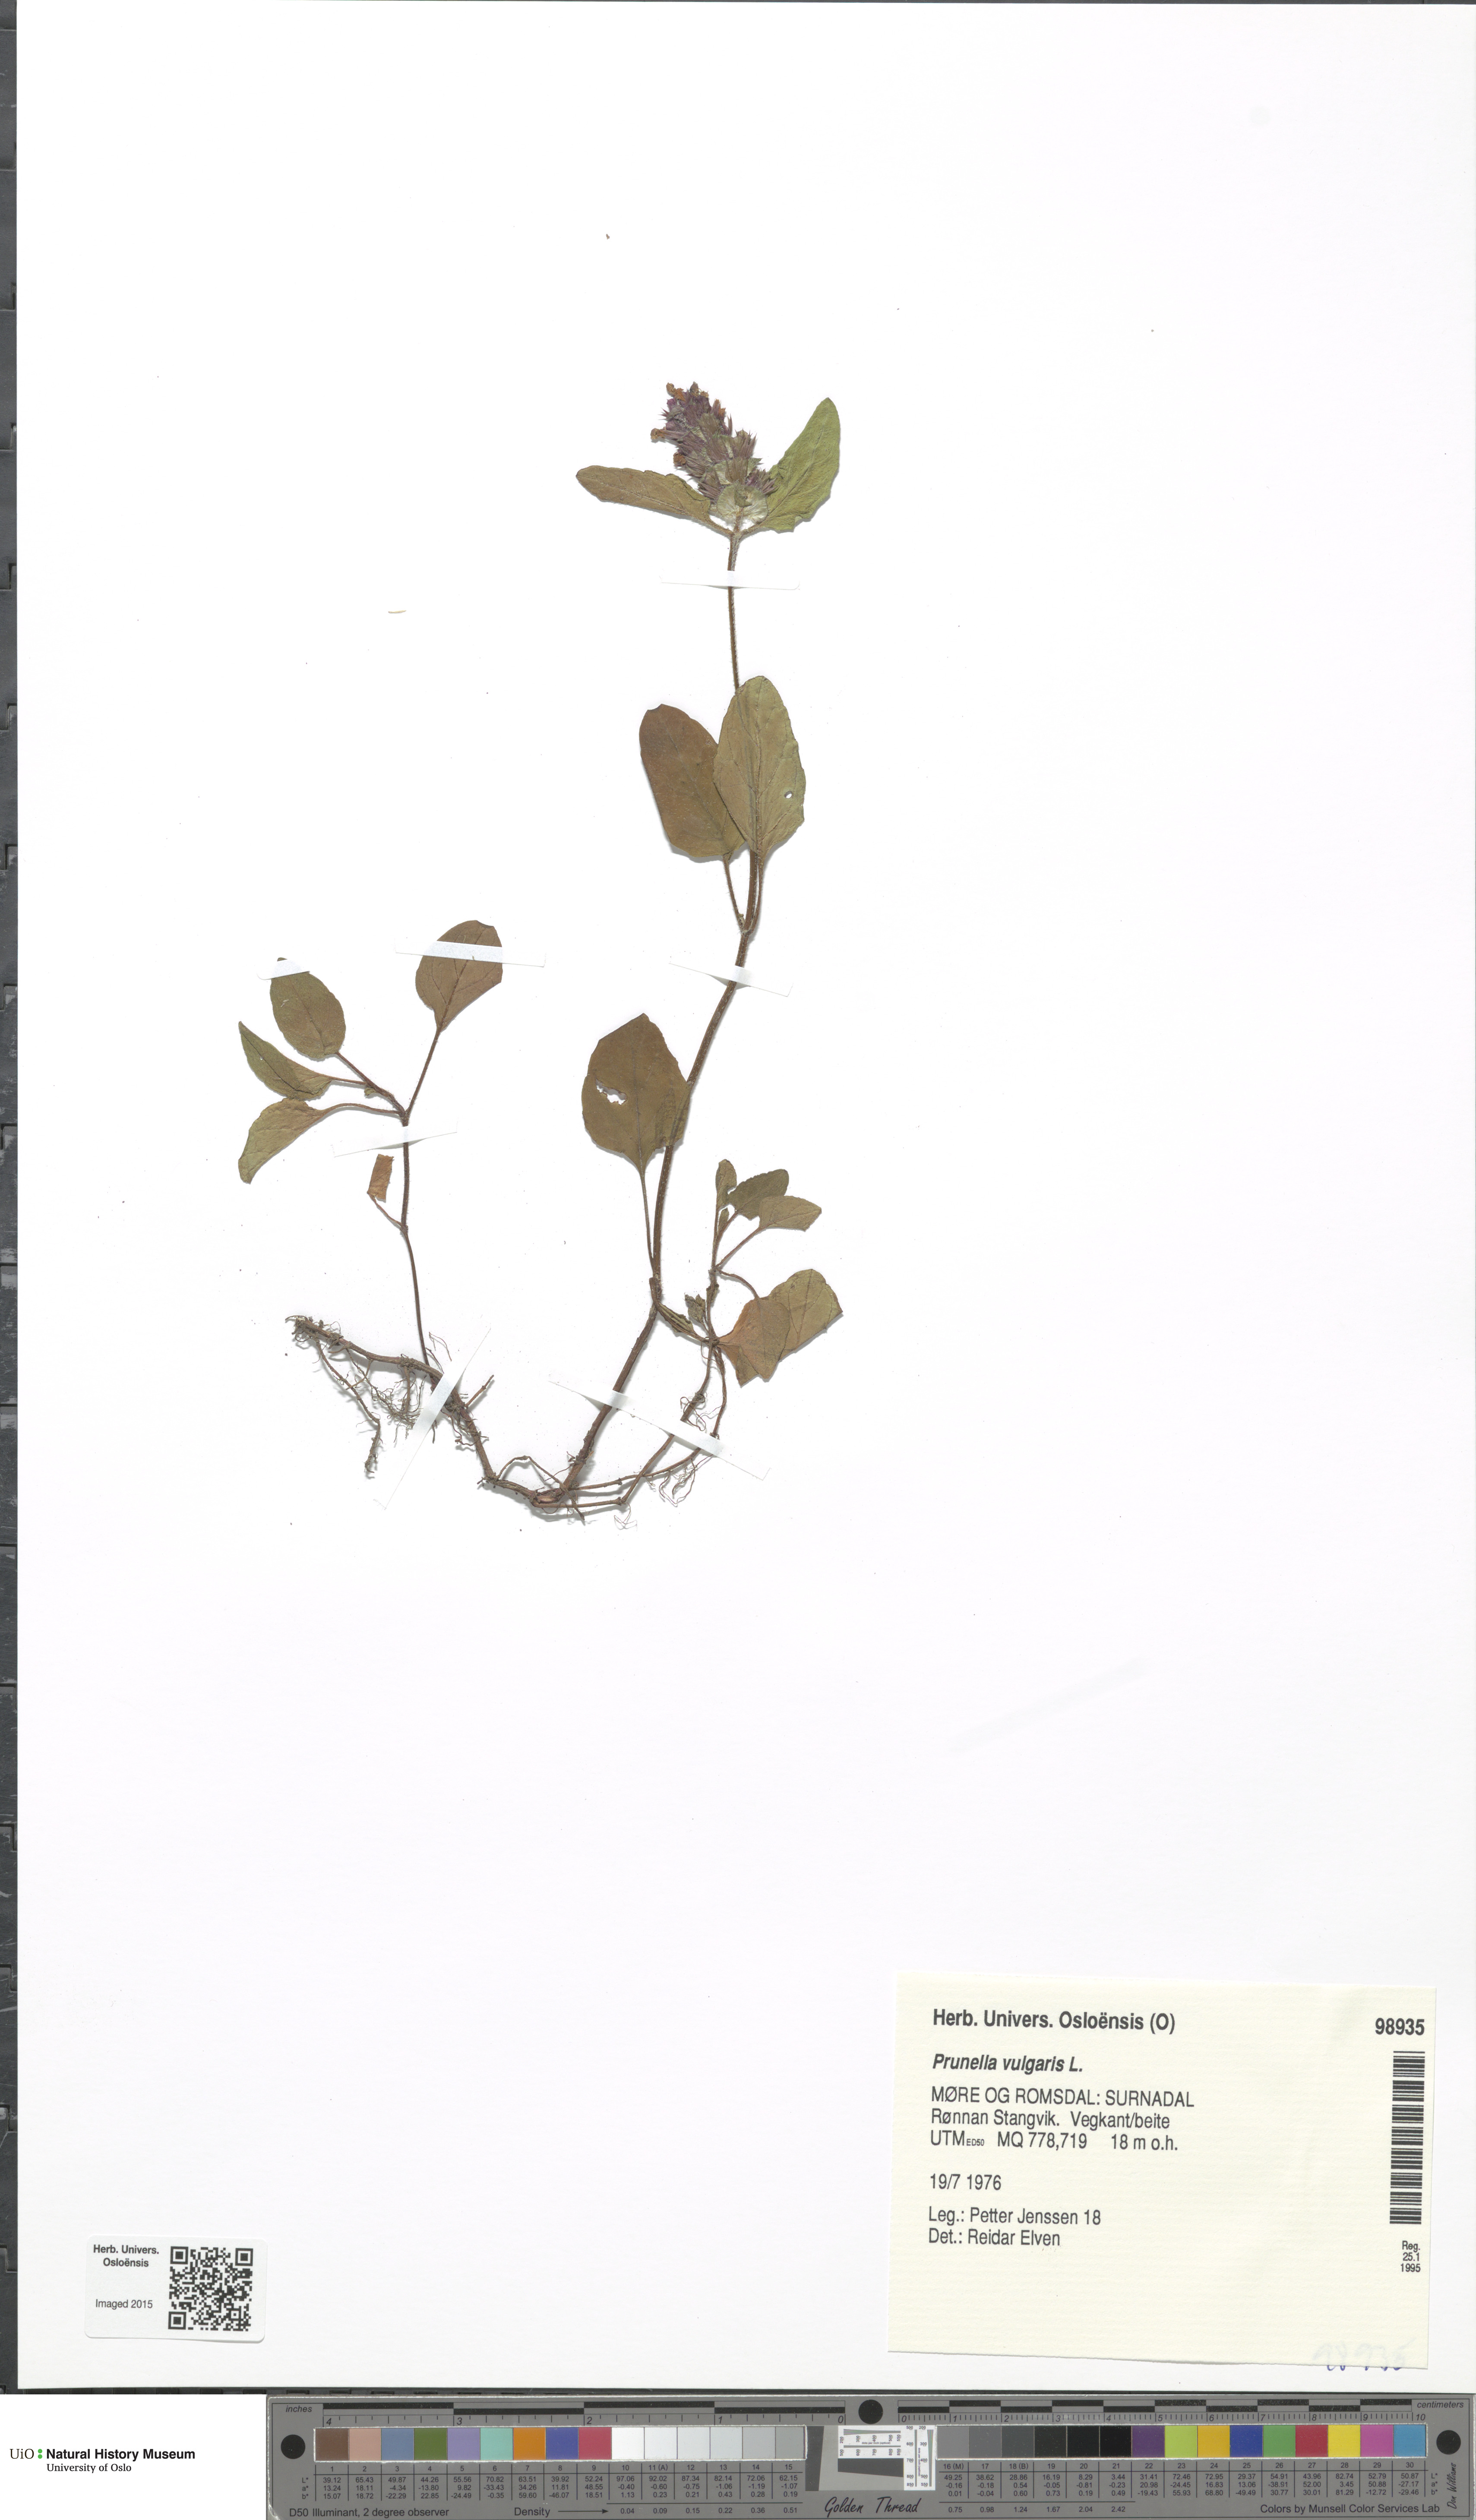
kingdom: Plantae
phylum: Tracheophyta
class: Magnoliopsida
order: Lamiales
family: Lamiaceae
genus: Prunella
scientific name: Prunella vulgaris
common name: Heal-all
